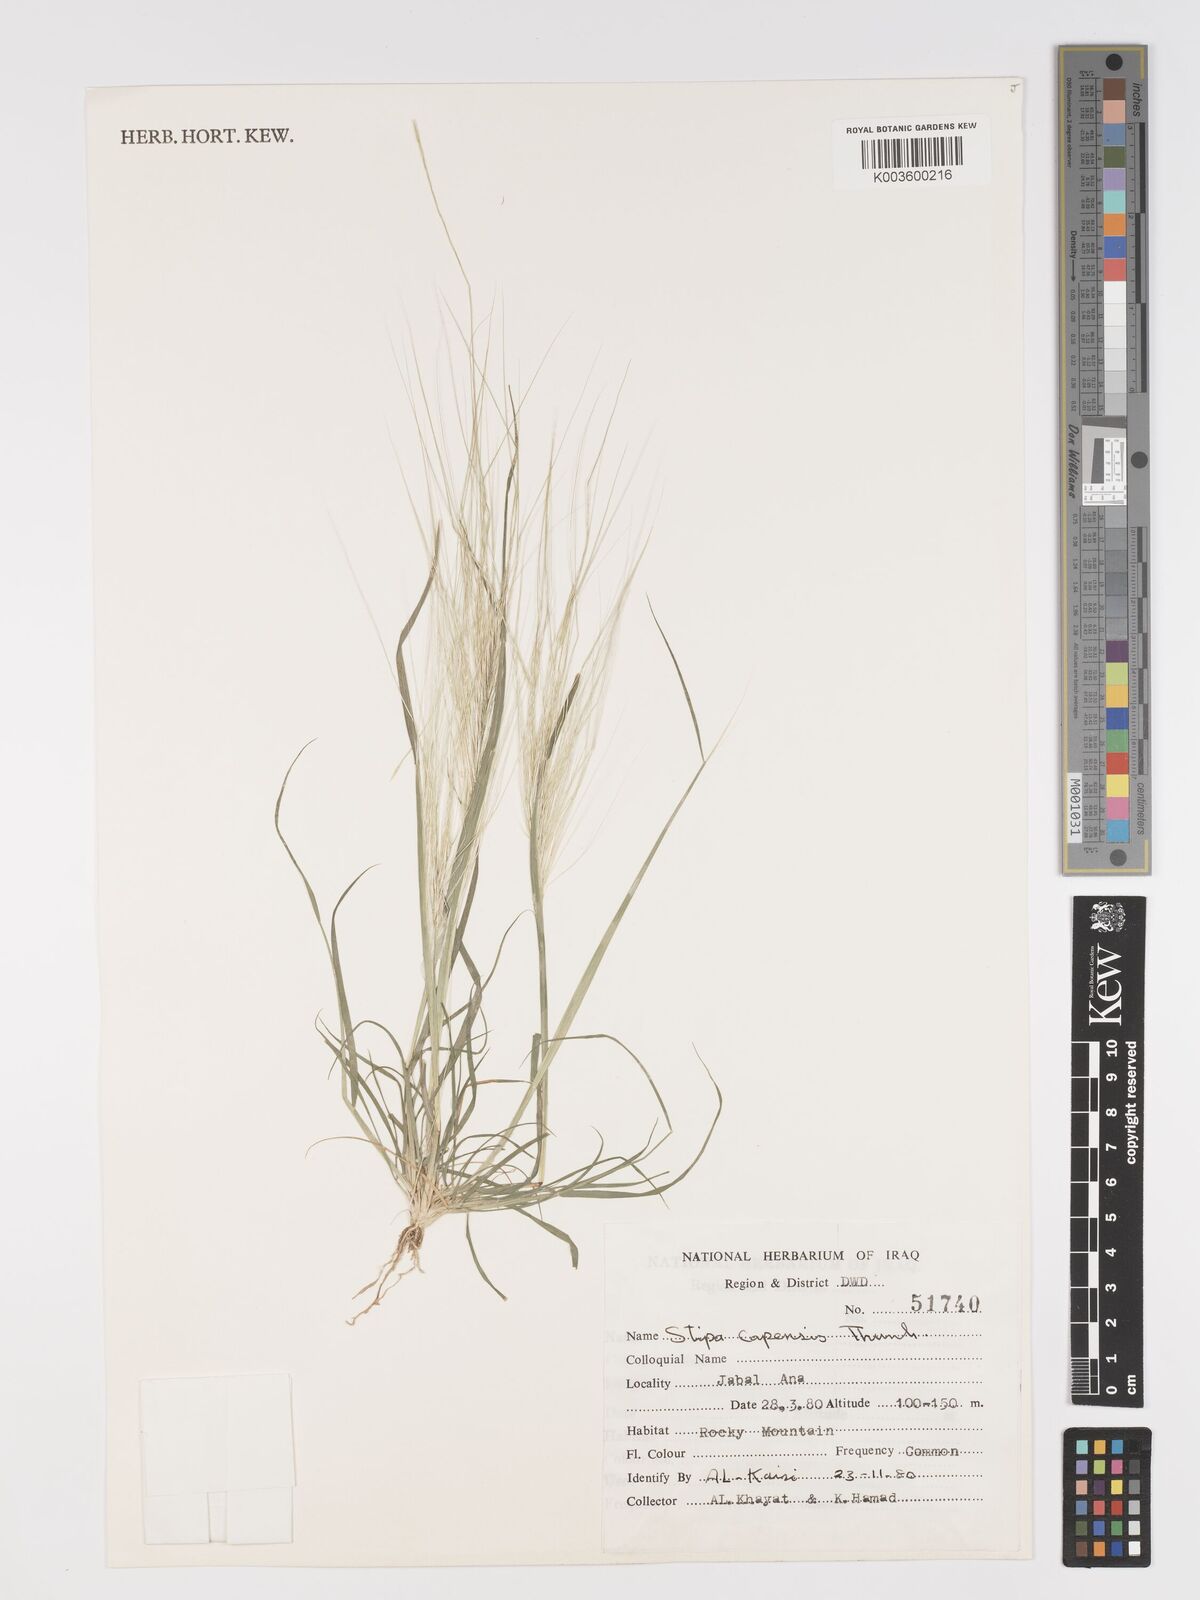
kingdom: Plantae
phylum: Tracheophyta
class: Liliopsida
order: Poales
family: Poaceae
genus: Stipellula
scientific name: Stipellula capensis
